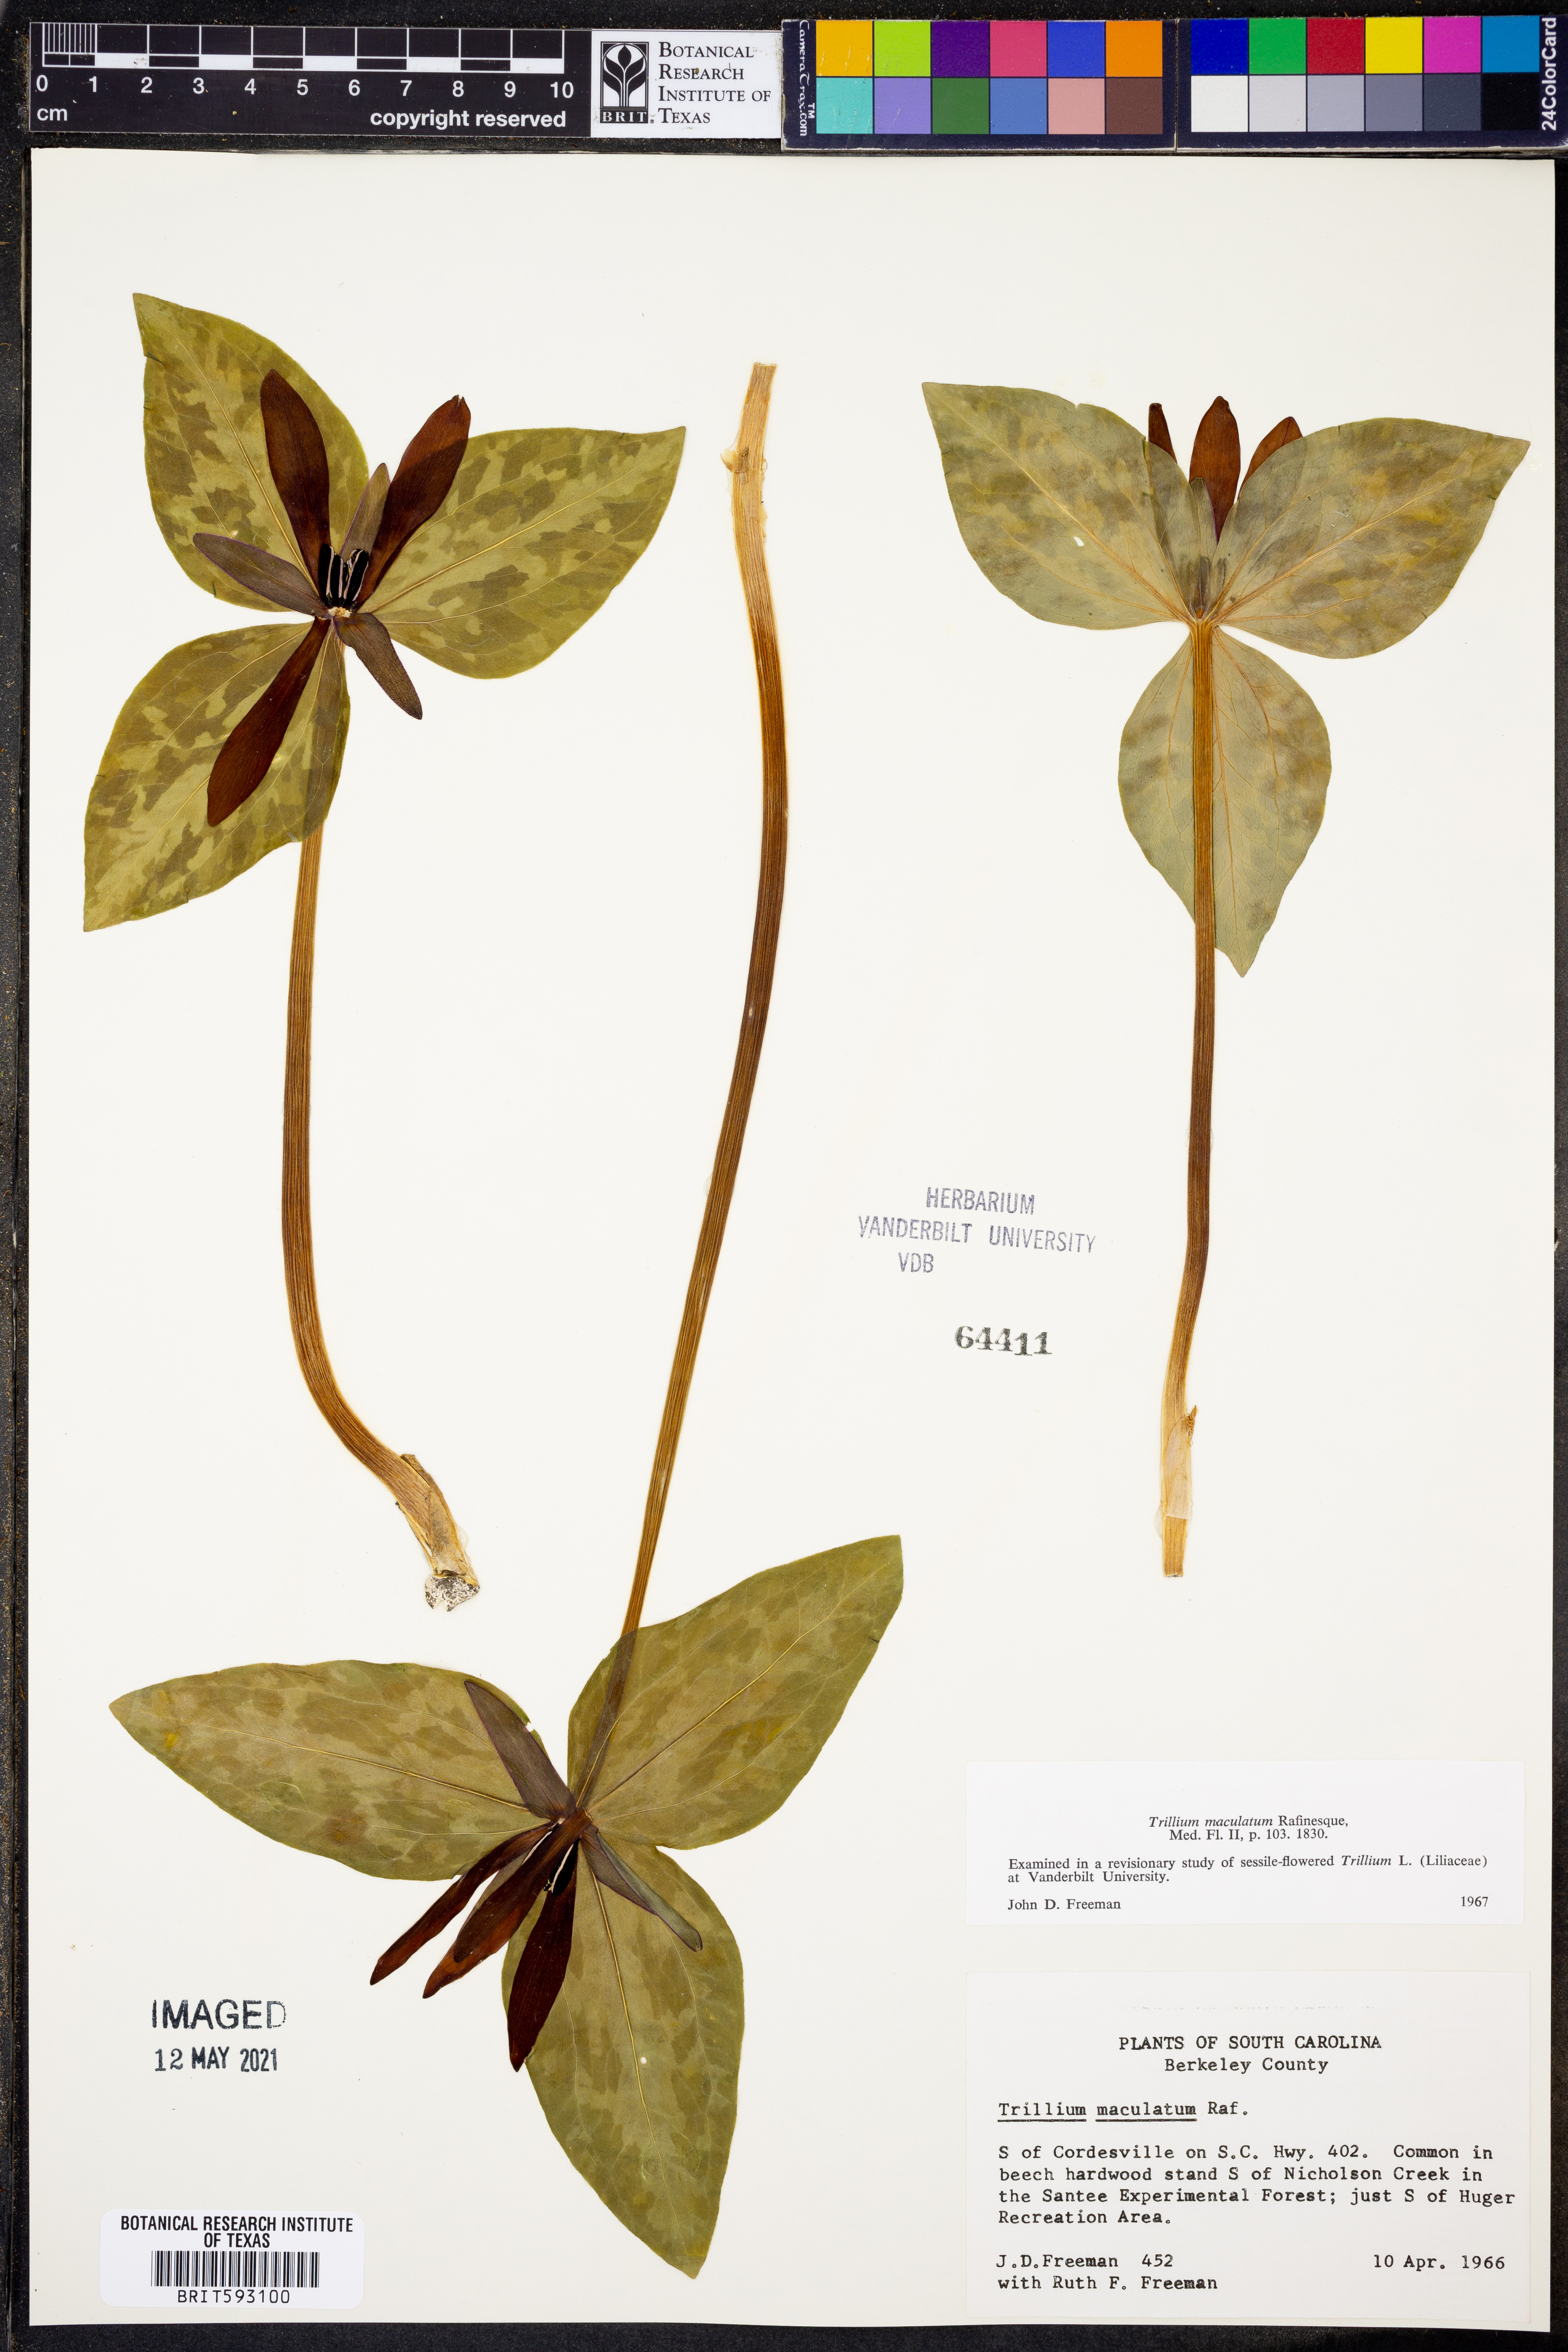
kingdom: Plantae
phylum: Tracheophyta
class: Liliopsida
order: Liliales
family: Melanthiaceae
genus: Trillium
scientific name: Trillium maculatum
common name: Mottled trillium
